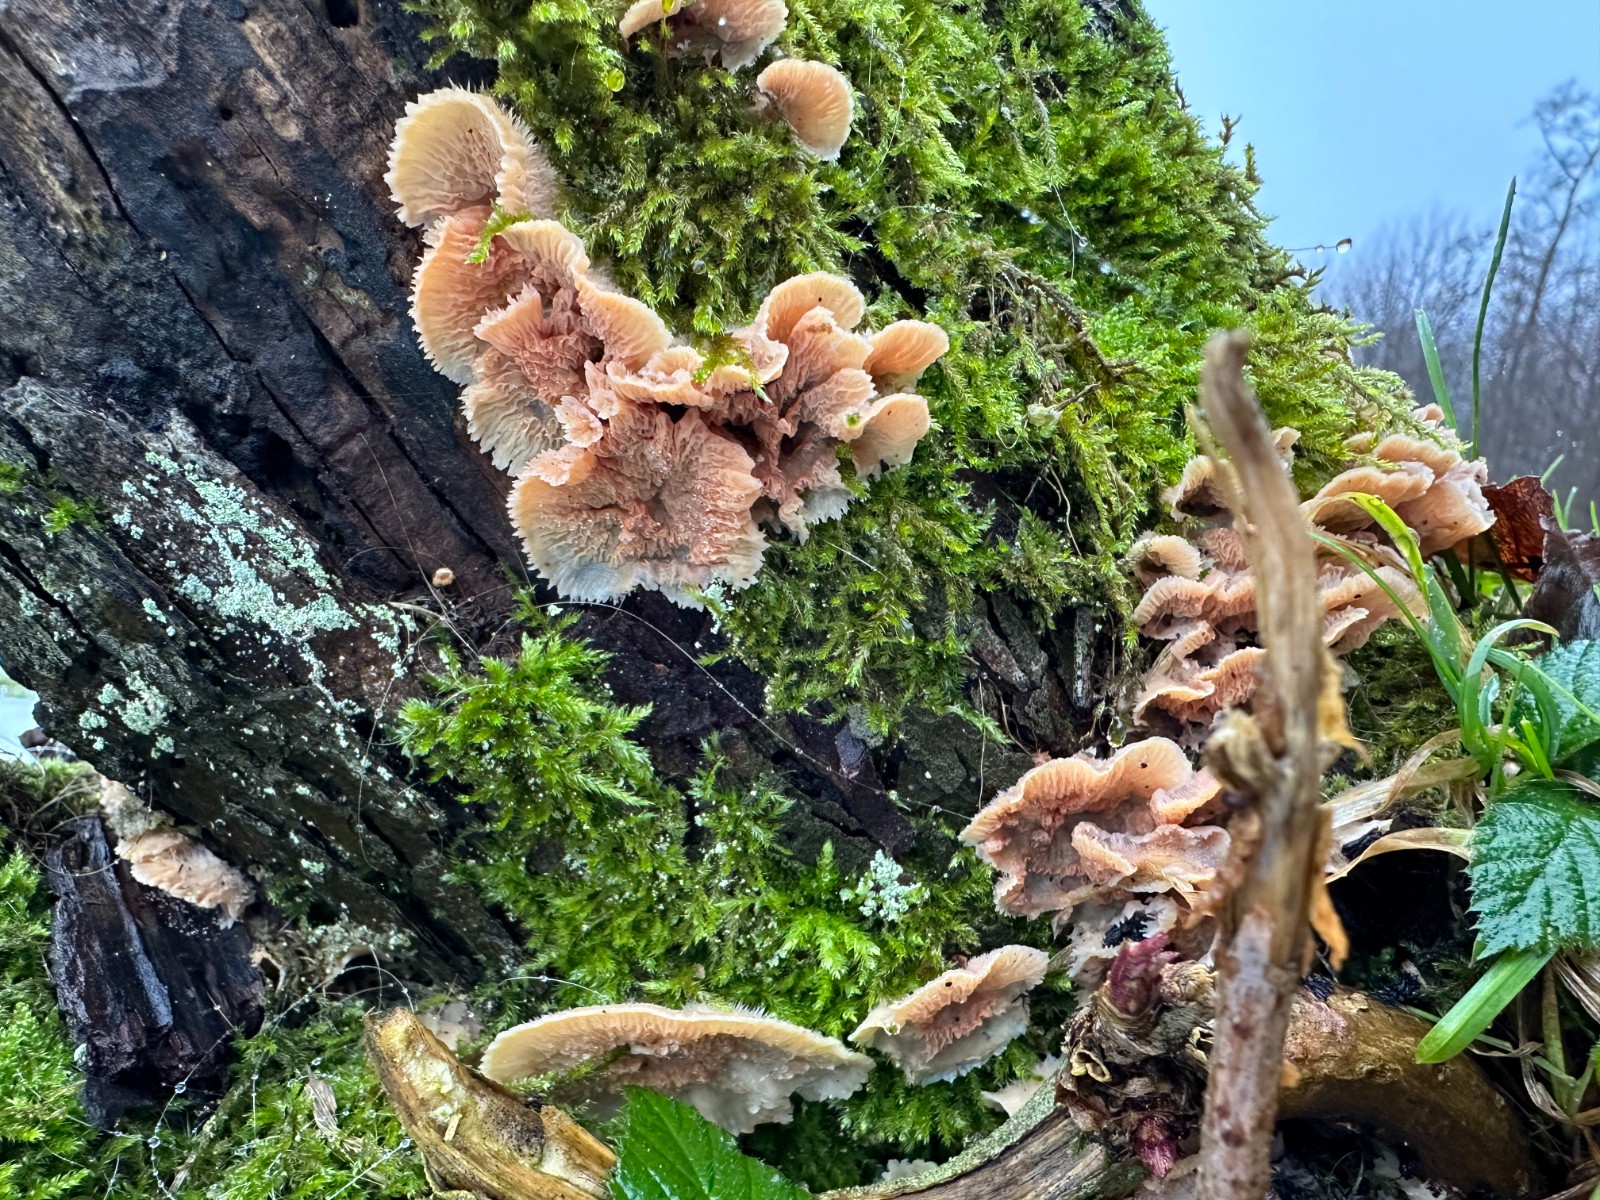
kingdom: Fungi
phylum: Basidiomycota
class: Agaricomycetes
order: Polyporales
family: Meruliaceae
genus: Phlebia
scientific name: Phlebia radiata
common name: stråle-åresvamp
